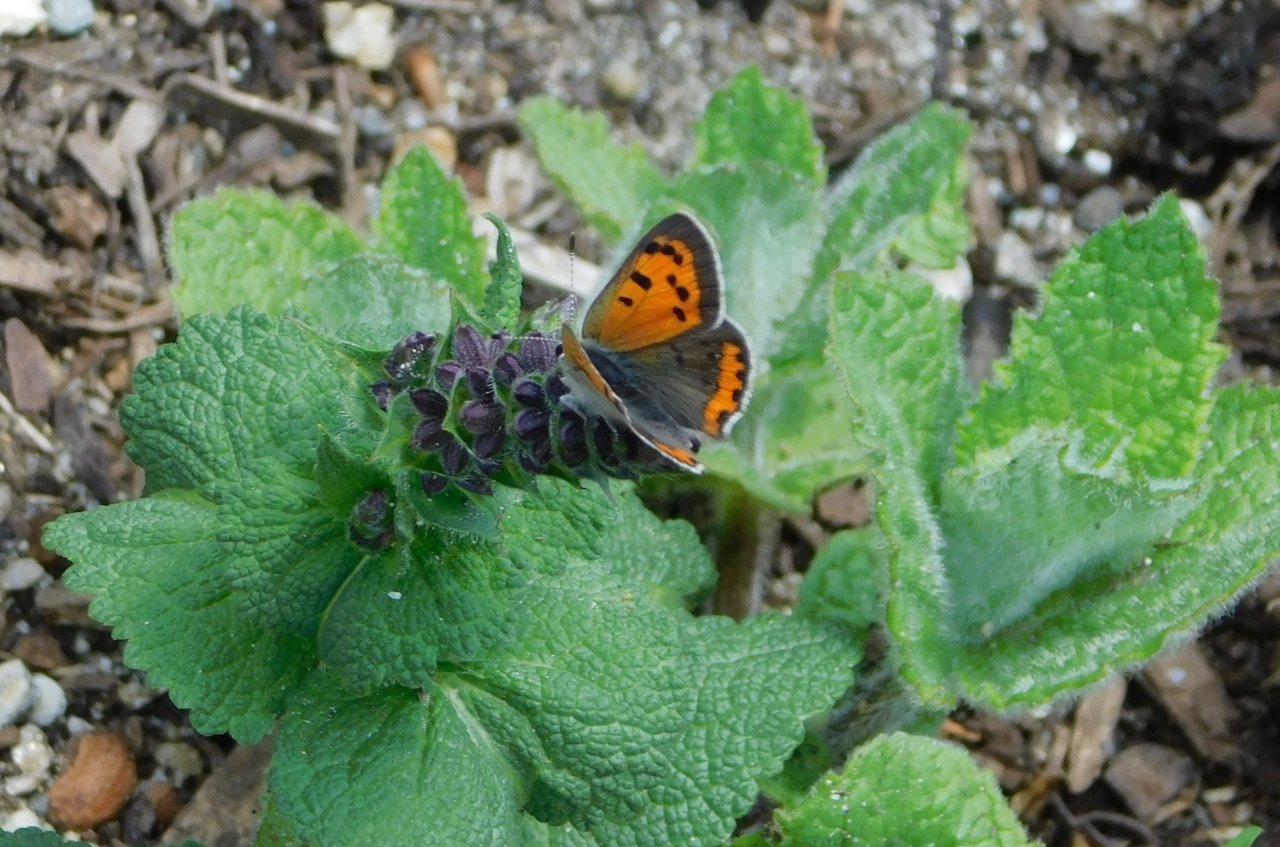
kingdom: Animalia
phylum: Arthropoda
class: Insecta
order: Lepidoptera
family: Lycaenidae
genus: Lycaena
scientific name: Lycaena phlaeas
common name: American Copper
